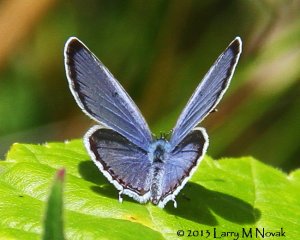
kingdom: Animalia
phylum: Arthropoda
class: Insecta
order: Lepidoptera
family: Lycaenidae
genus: Elkalyce
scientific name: Elkalyce comyntas
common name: Eastern Tailed-Blue
